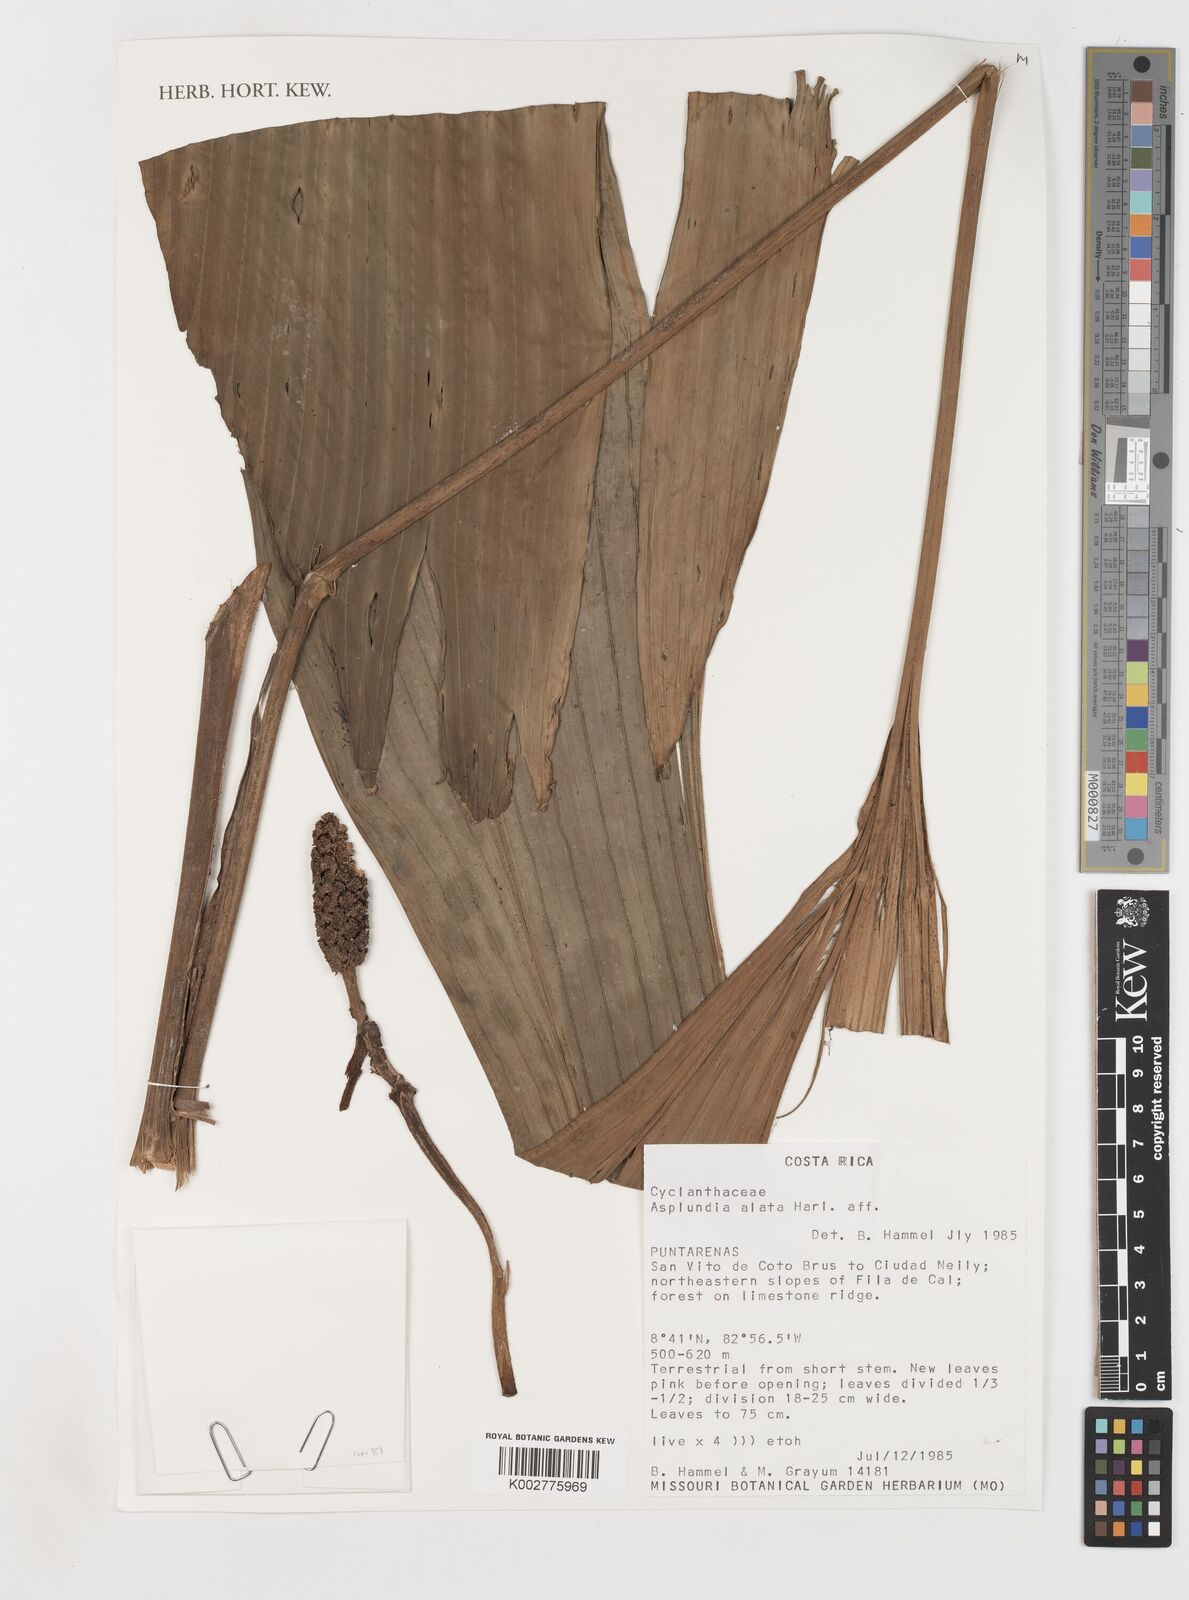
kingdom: Plantae
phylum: Tracheophyta
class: Liliopsida
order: Pandanales
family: Cyclanthaceae
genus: Asplundia
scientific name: Asplundia alata
